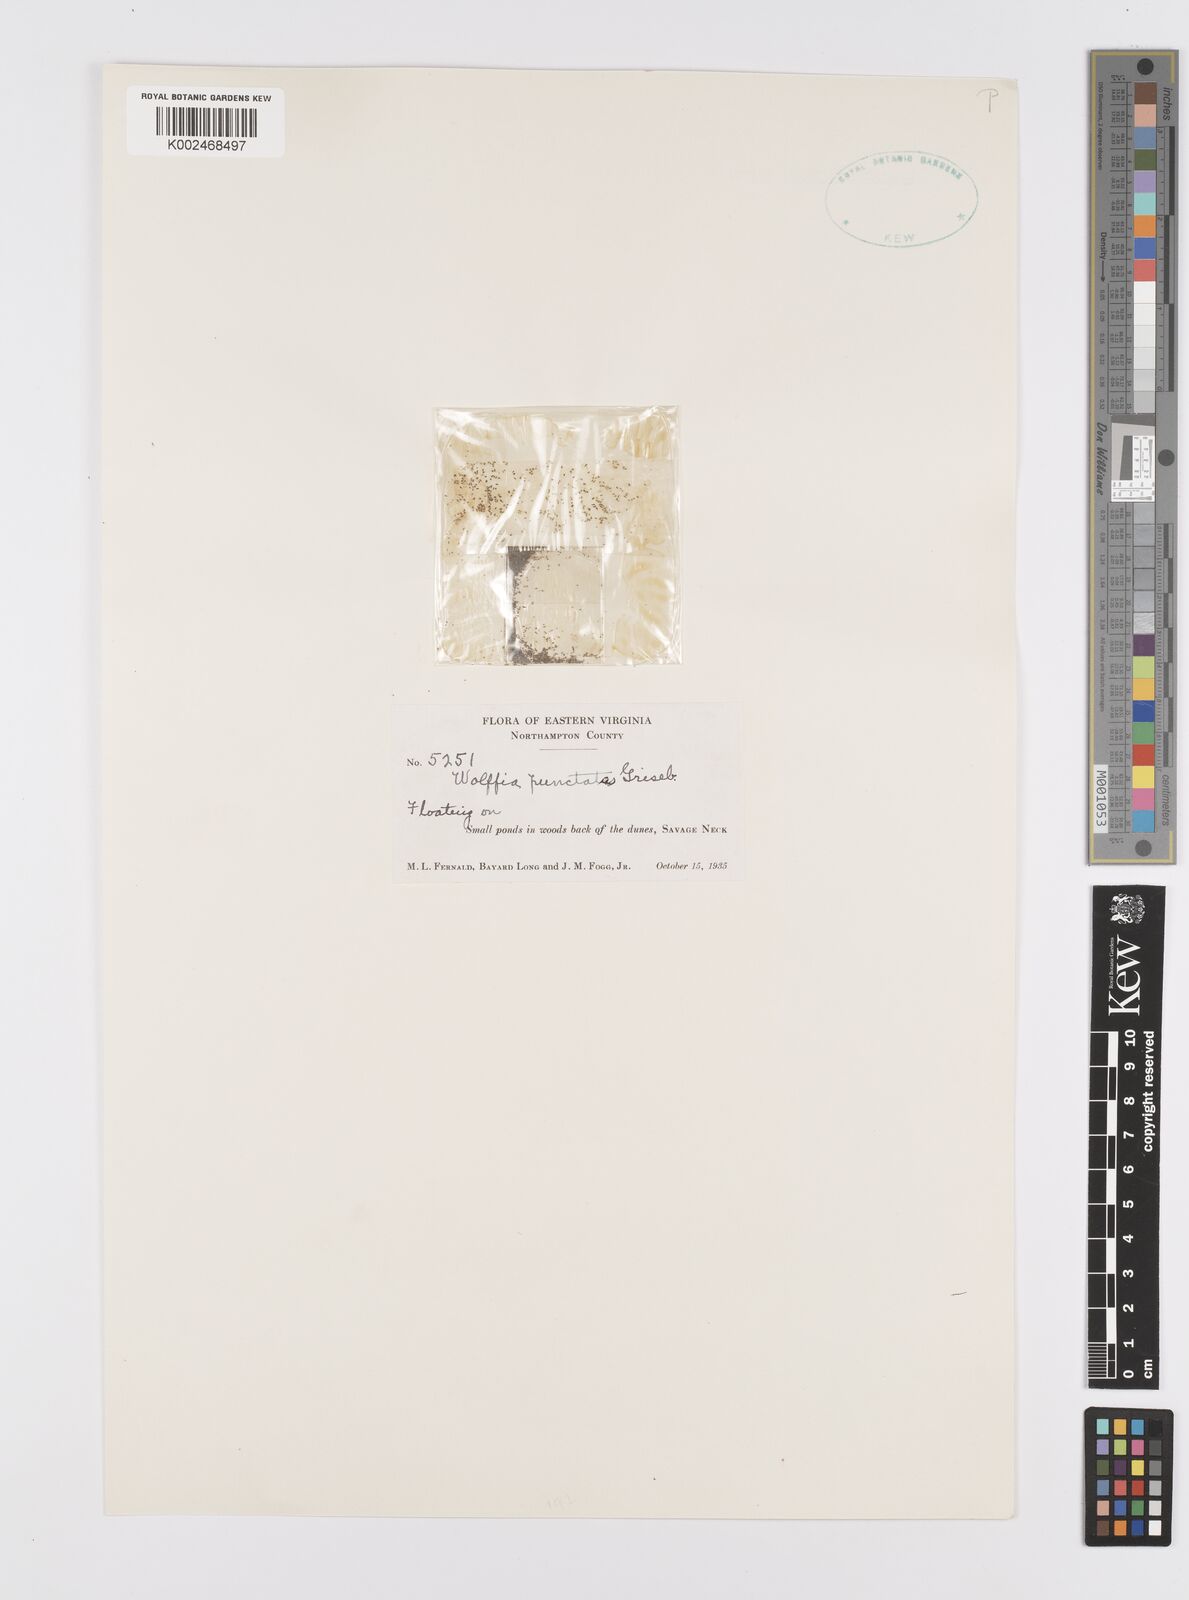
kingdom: Plantae
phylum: Tracheophyta
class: Liliopsida
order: Alismatales
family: Araceae
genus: Wolffia
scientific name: Wolffia brasiliensis
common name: Brazilian watermeal
